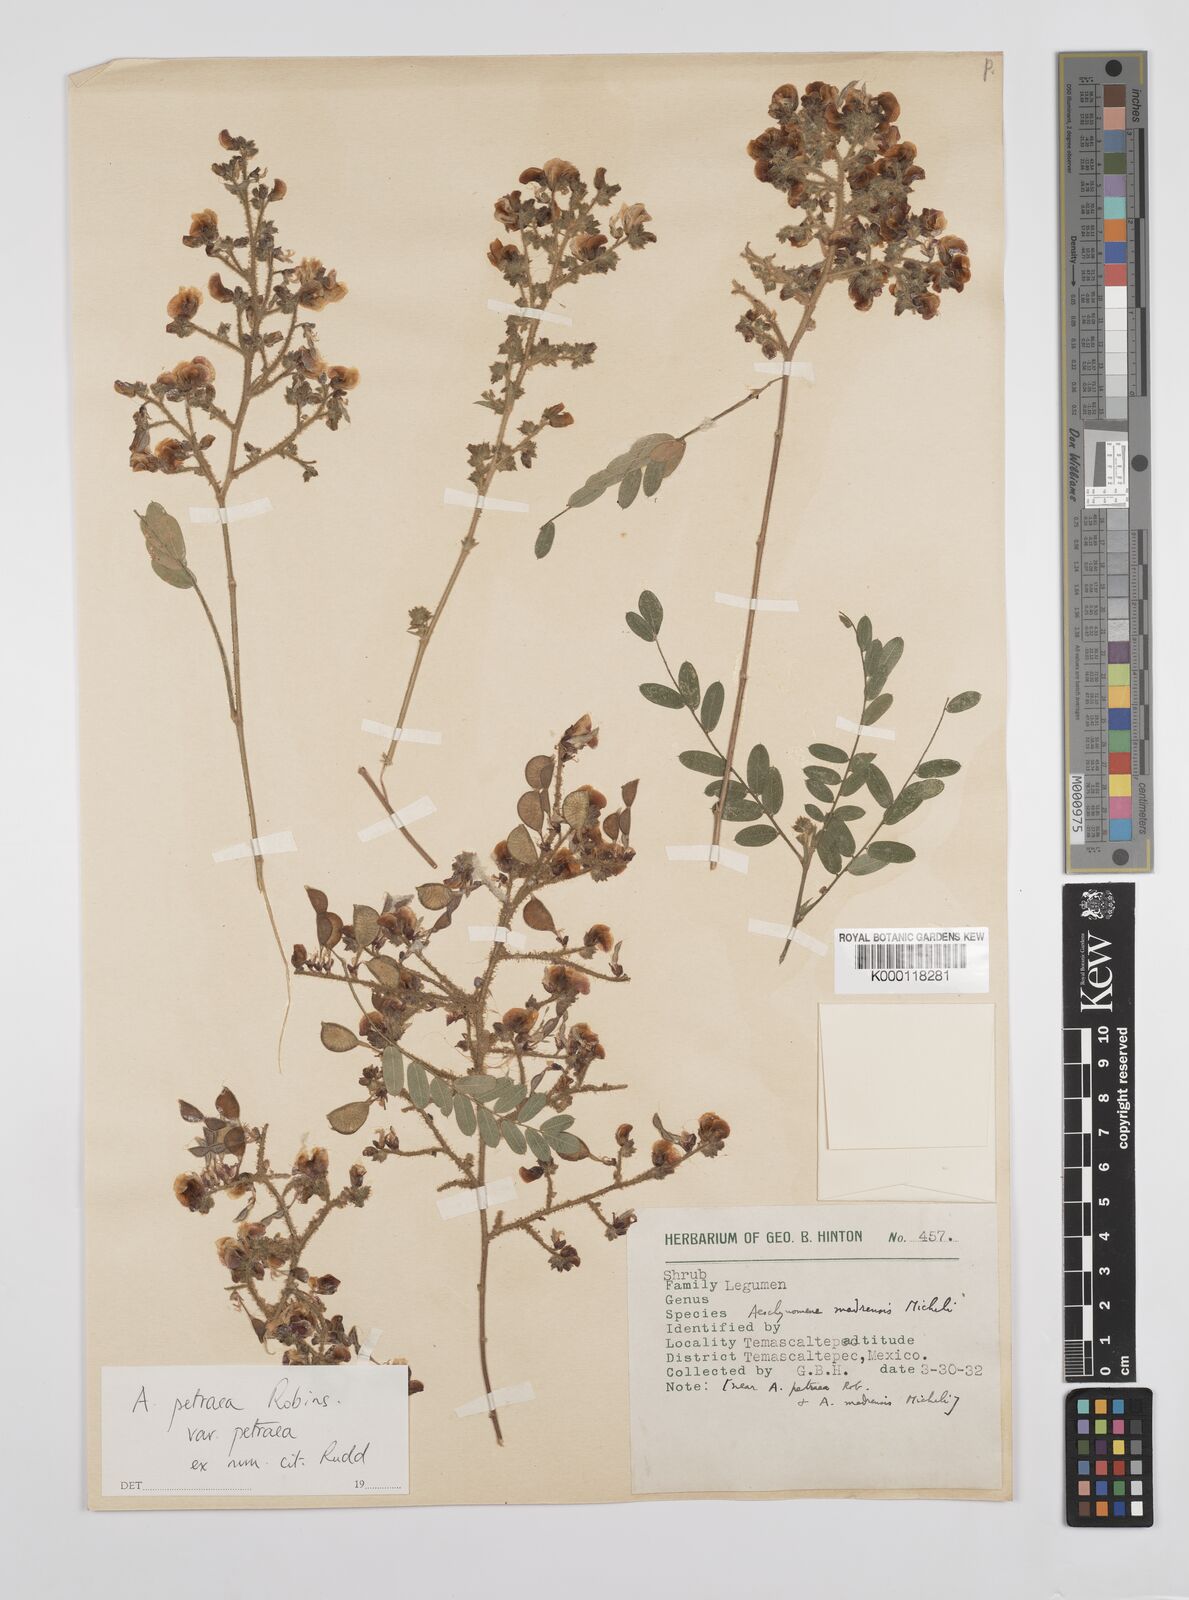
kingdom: Plantae
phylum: Tracheophyta
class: Magnoliopsida
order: Fabales
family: Fabaceae
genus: Ctenodon
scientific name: Ctenodon petraeus
